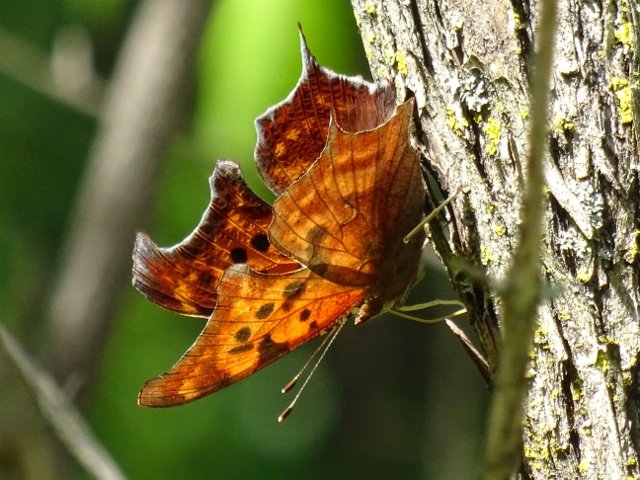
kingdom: Animalia
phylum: Arthropoda
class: Insecta
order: Lepidoptera
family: Nymphalidae
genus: Polygonia
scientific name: Polygonia interrogationis
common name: Question Mark
